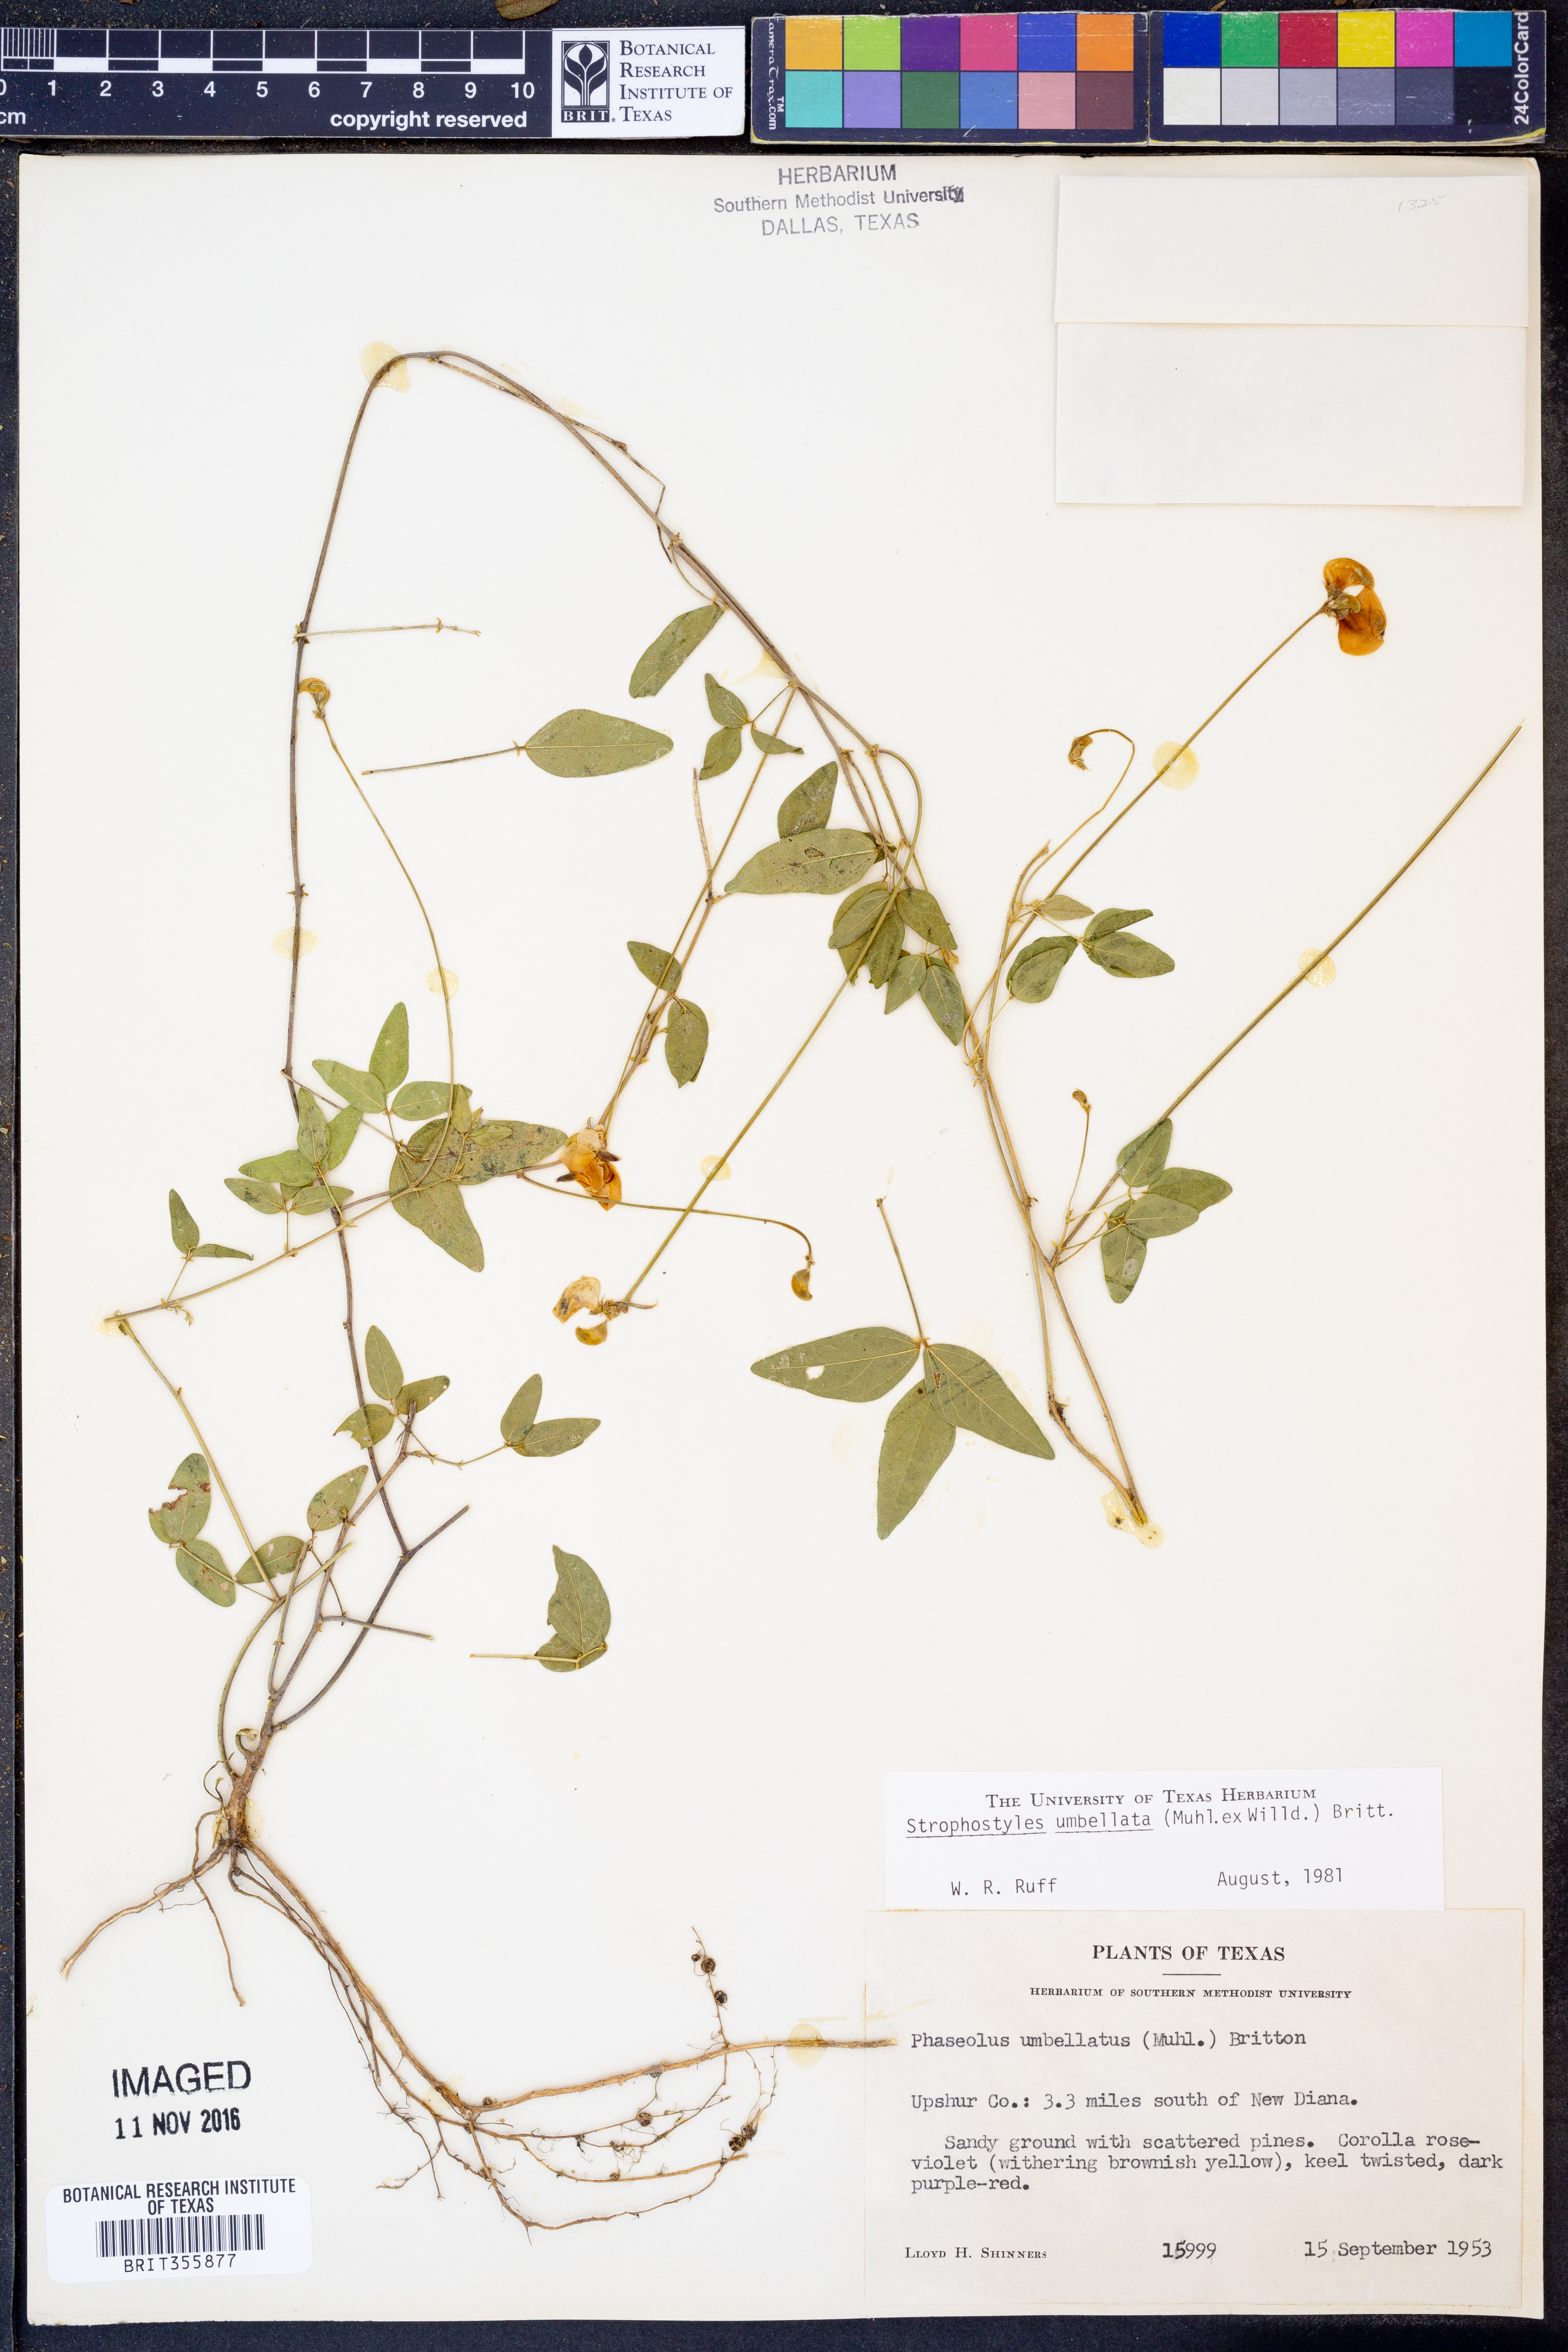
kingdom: Plantae
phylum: Tracheophyta
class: Magnoliopsida
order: Fabales
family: Fabaceae
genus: Strophostyles
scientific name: Strophostyles umbellata
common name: Perennial wild bean
